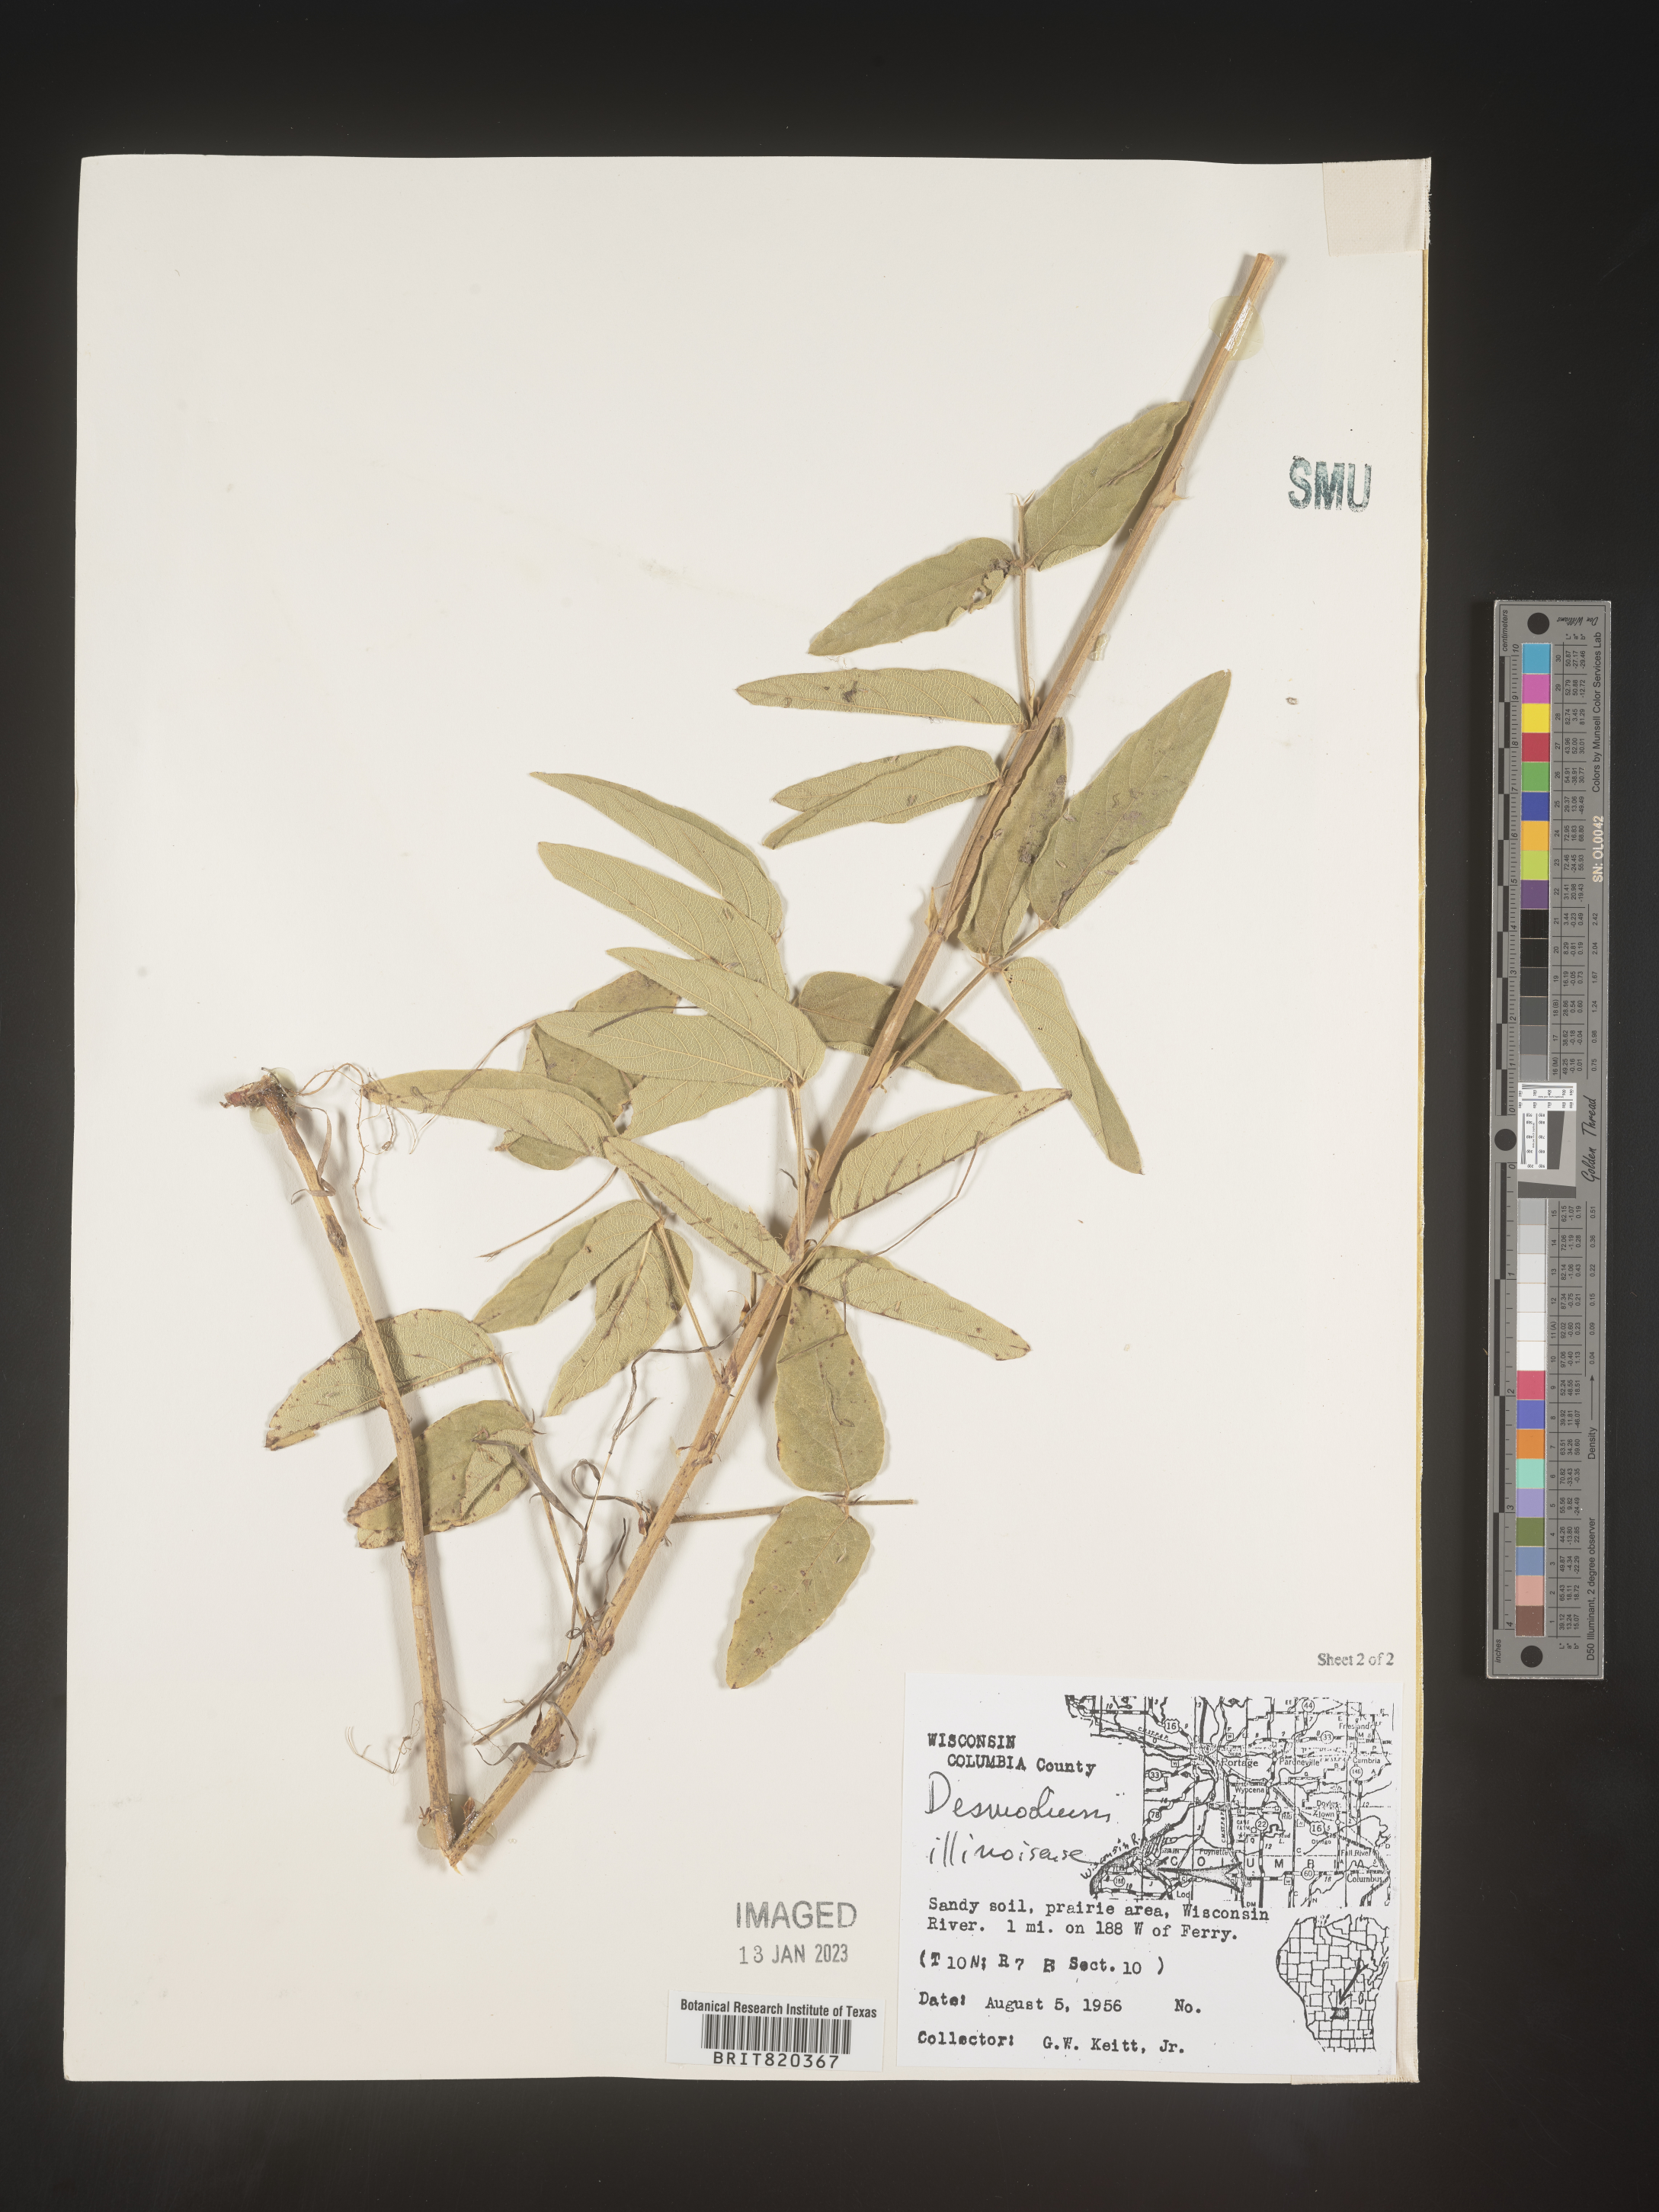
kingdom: Plantae
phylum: Tracheophyta
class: Magnoliopsida
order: Fabales
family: Fabaceae
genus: Desmodium
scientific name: Desmodium illinoense
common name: Illinois tick-clover
